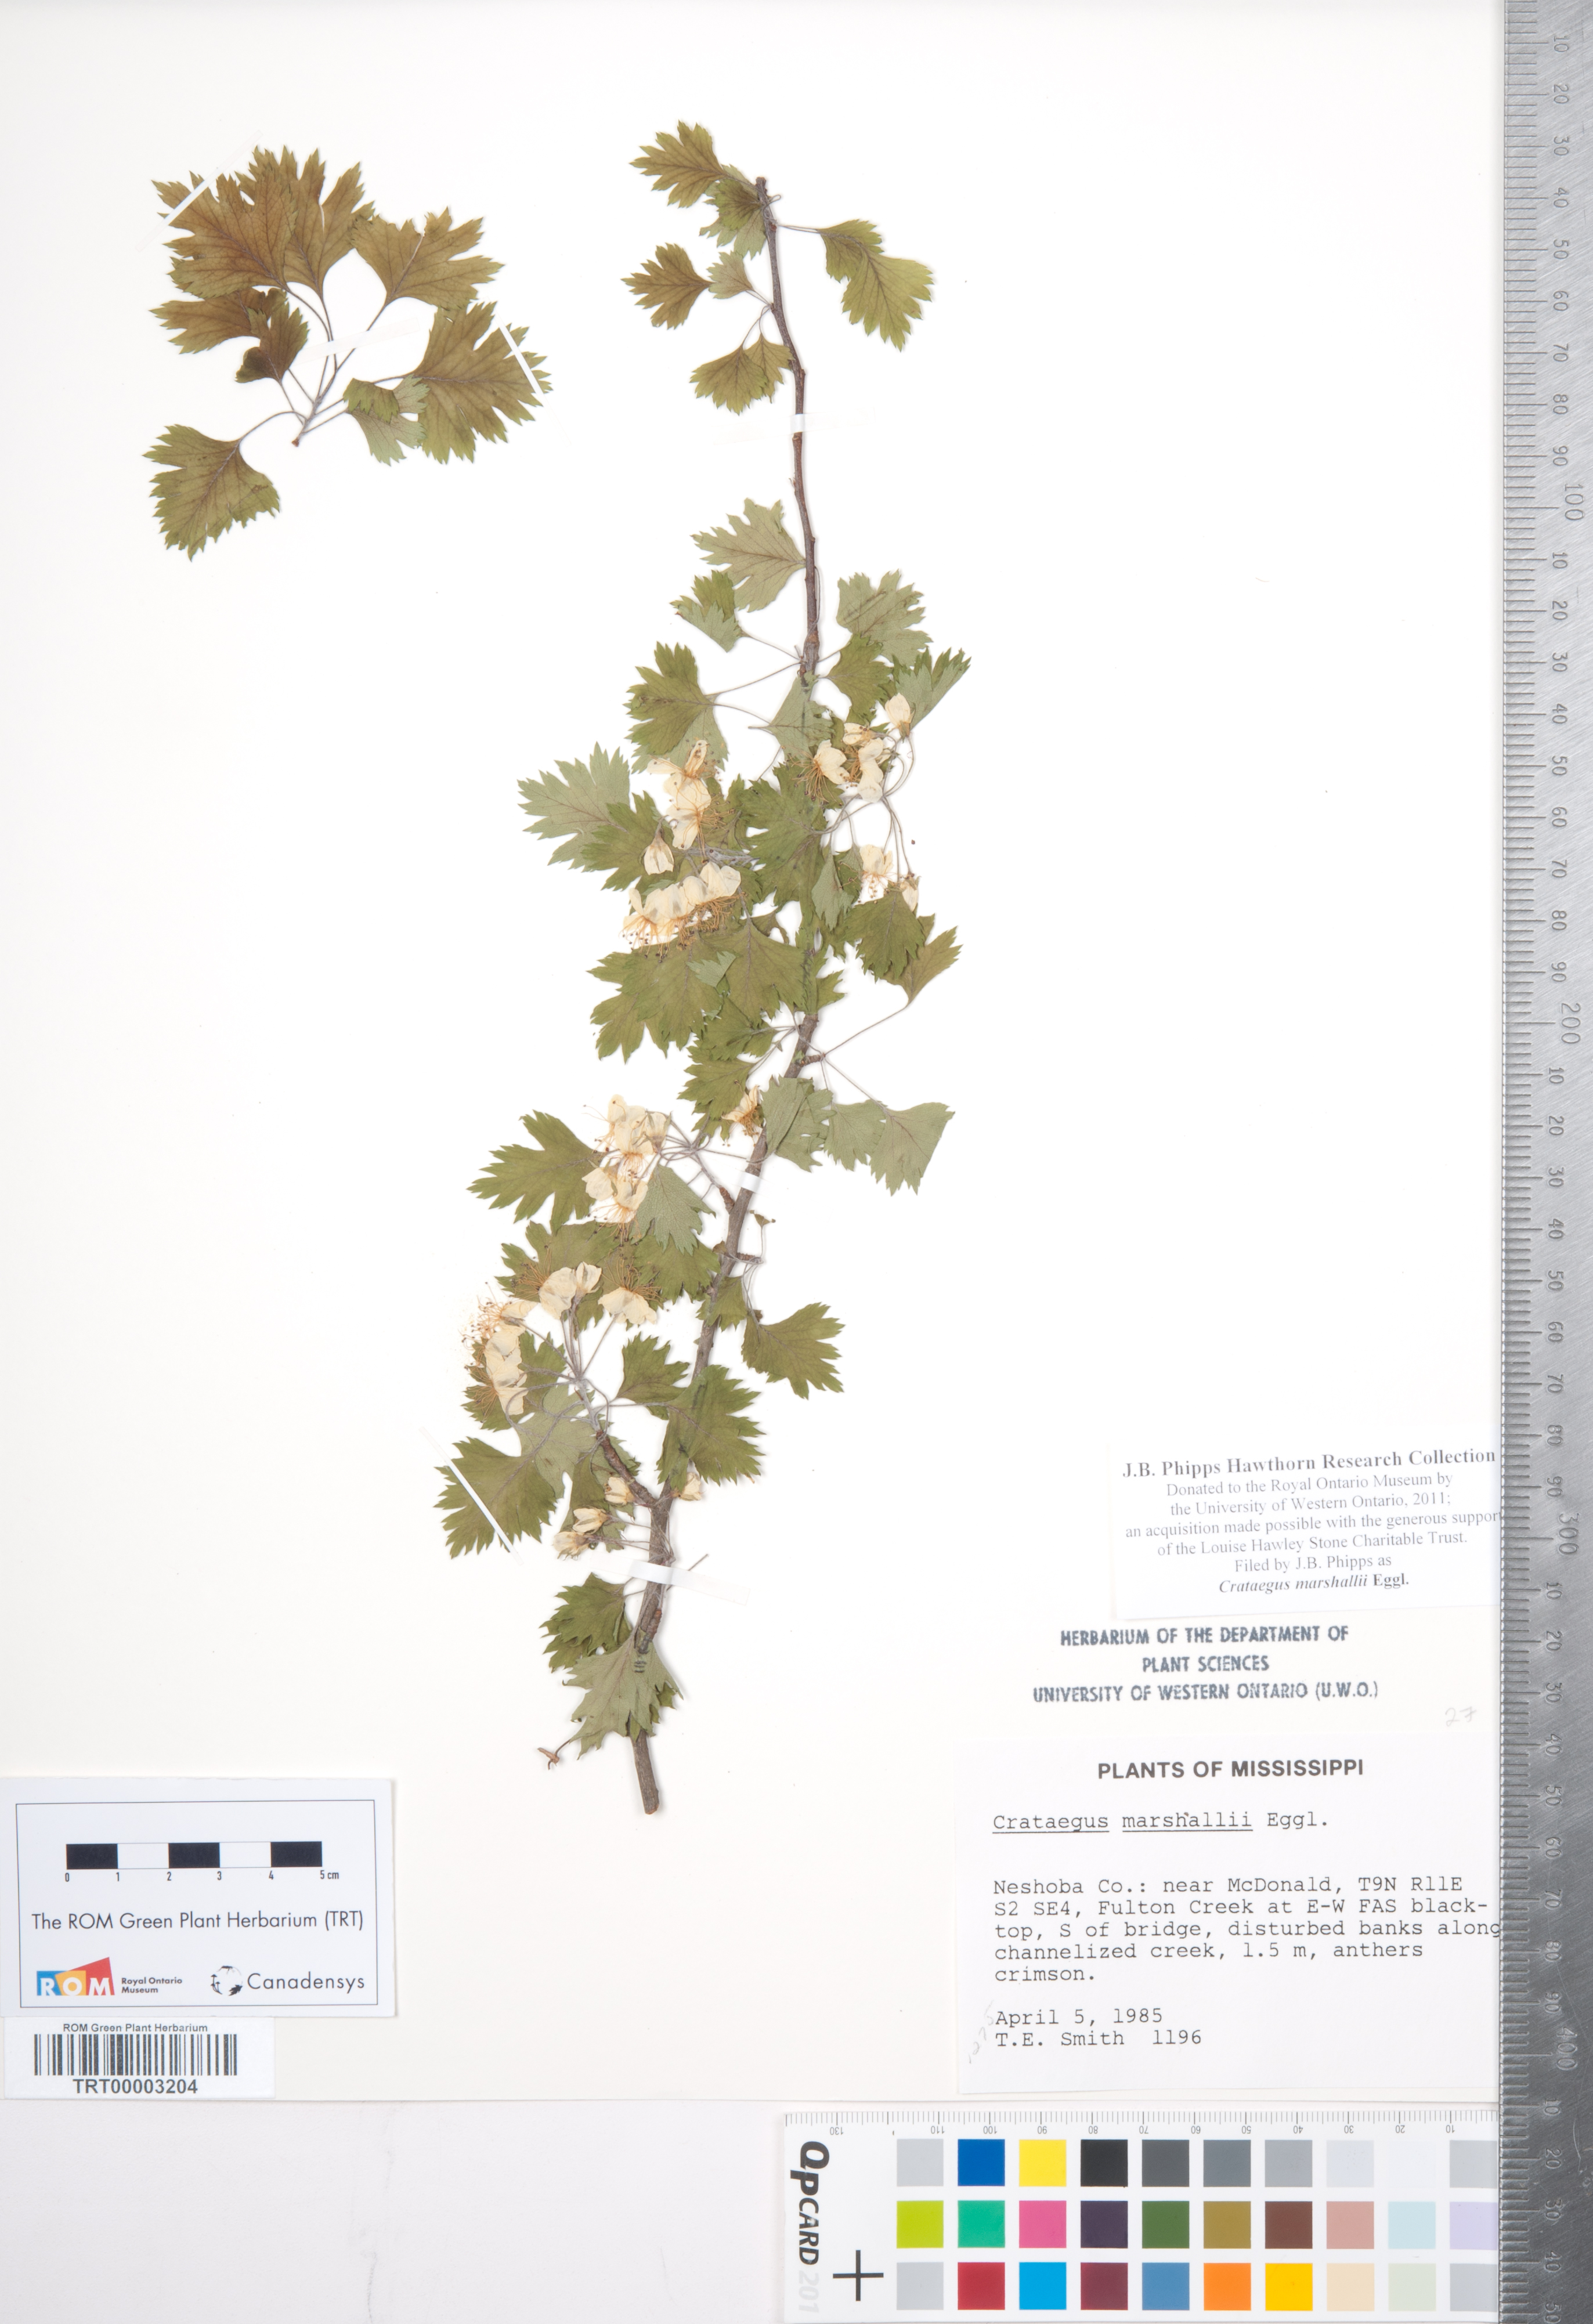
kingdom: Plantae
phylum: Tracheophyta
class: Magnoliopsida
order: Rosales
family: Rosaceae
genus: Crataegus
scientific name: Crataegus marshallii
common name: Parsley-hawthorn
